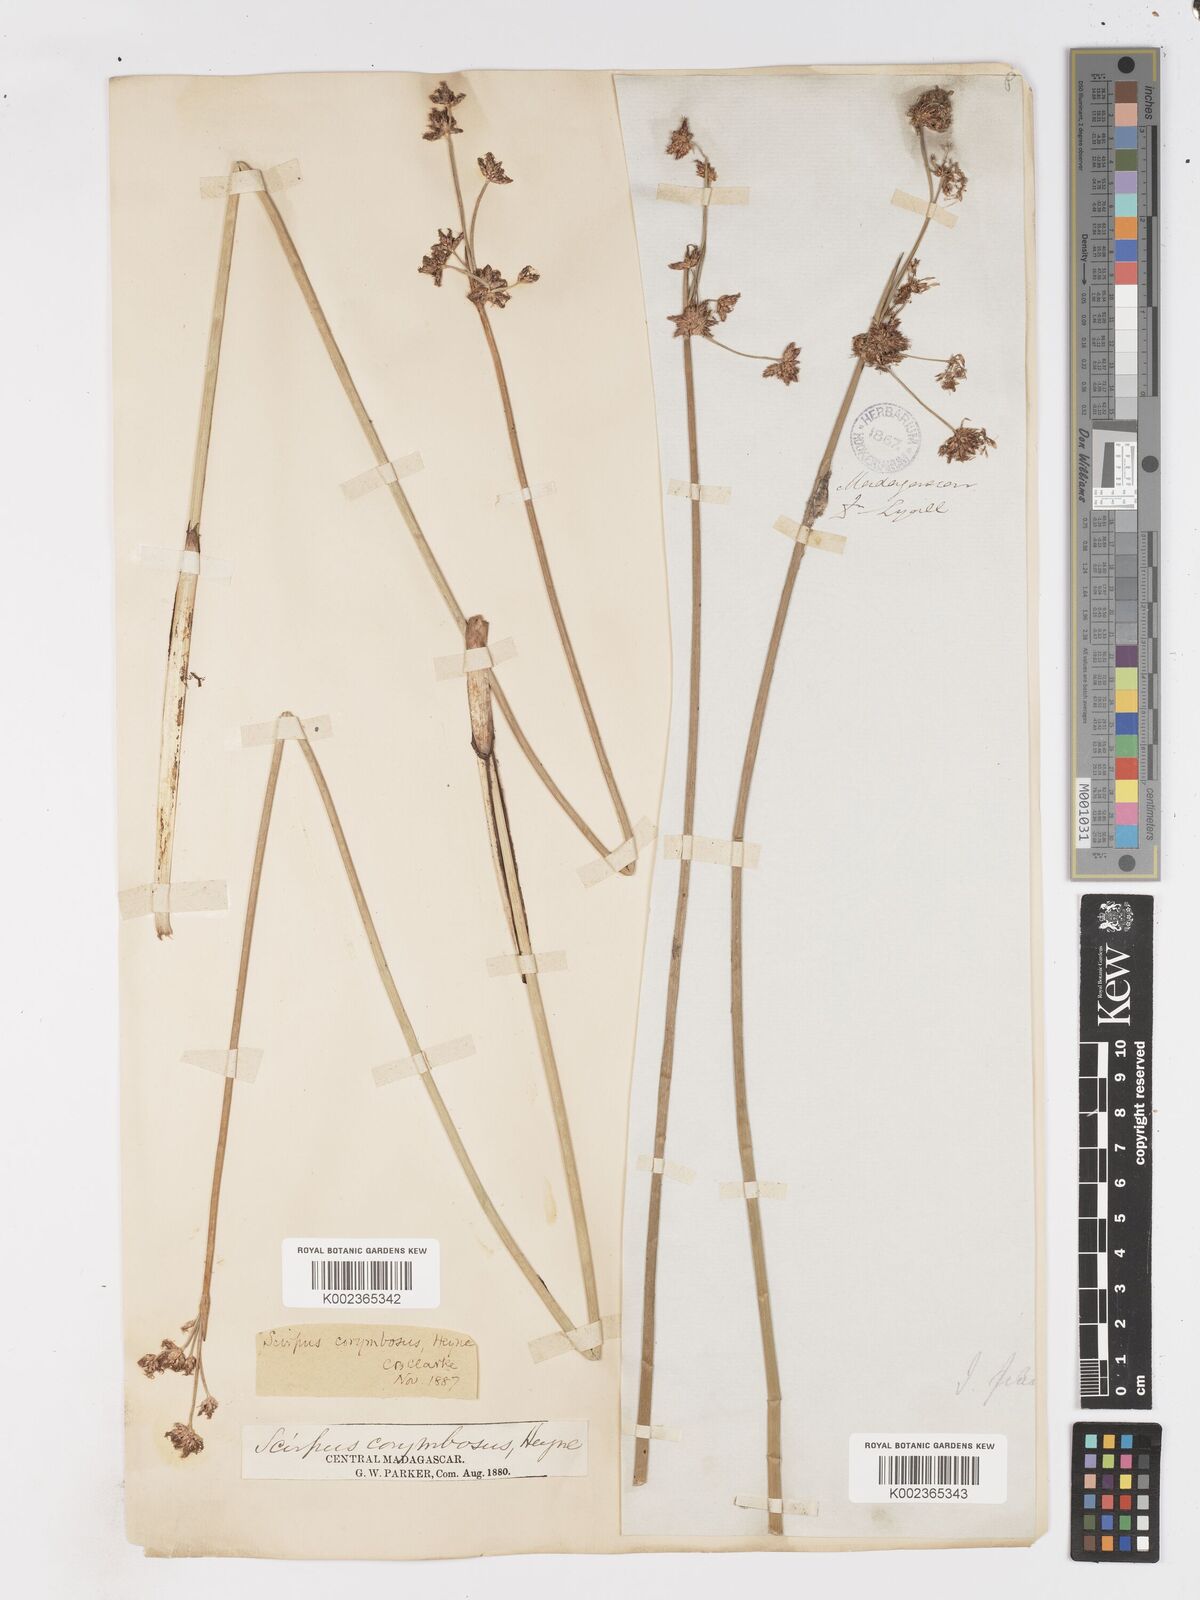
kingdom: Plantae
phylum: Tracheophyta
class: Liliopsida
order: Poales
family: Cyperaceae
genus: Schoenoplectiella
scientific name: Schoenoplectiella corymbosa
